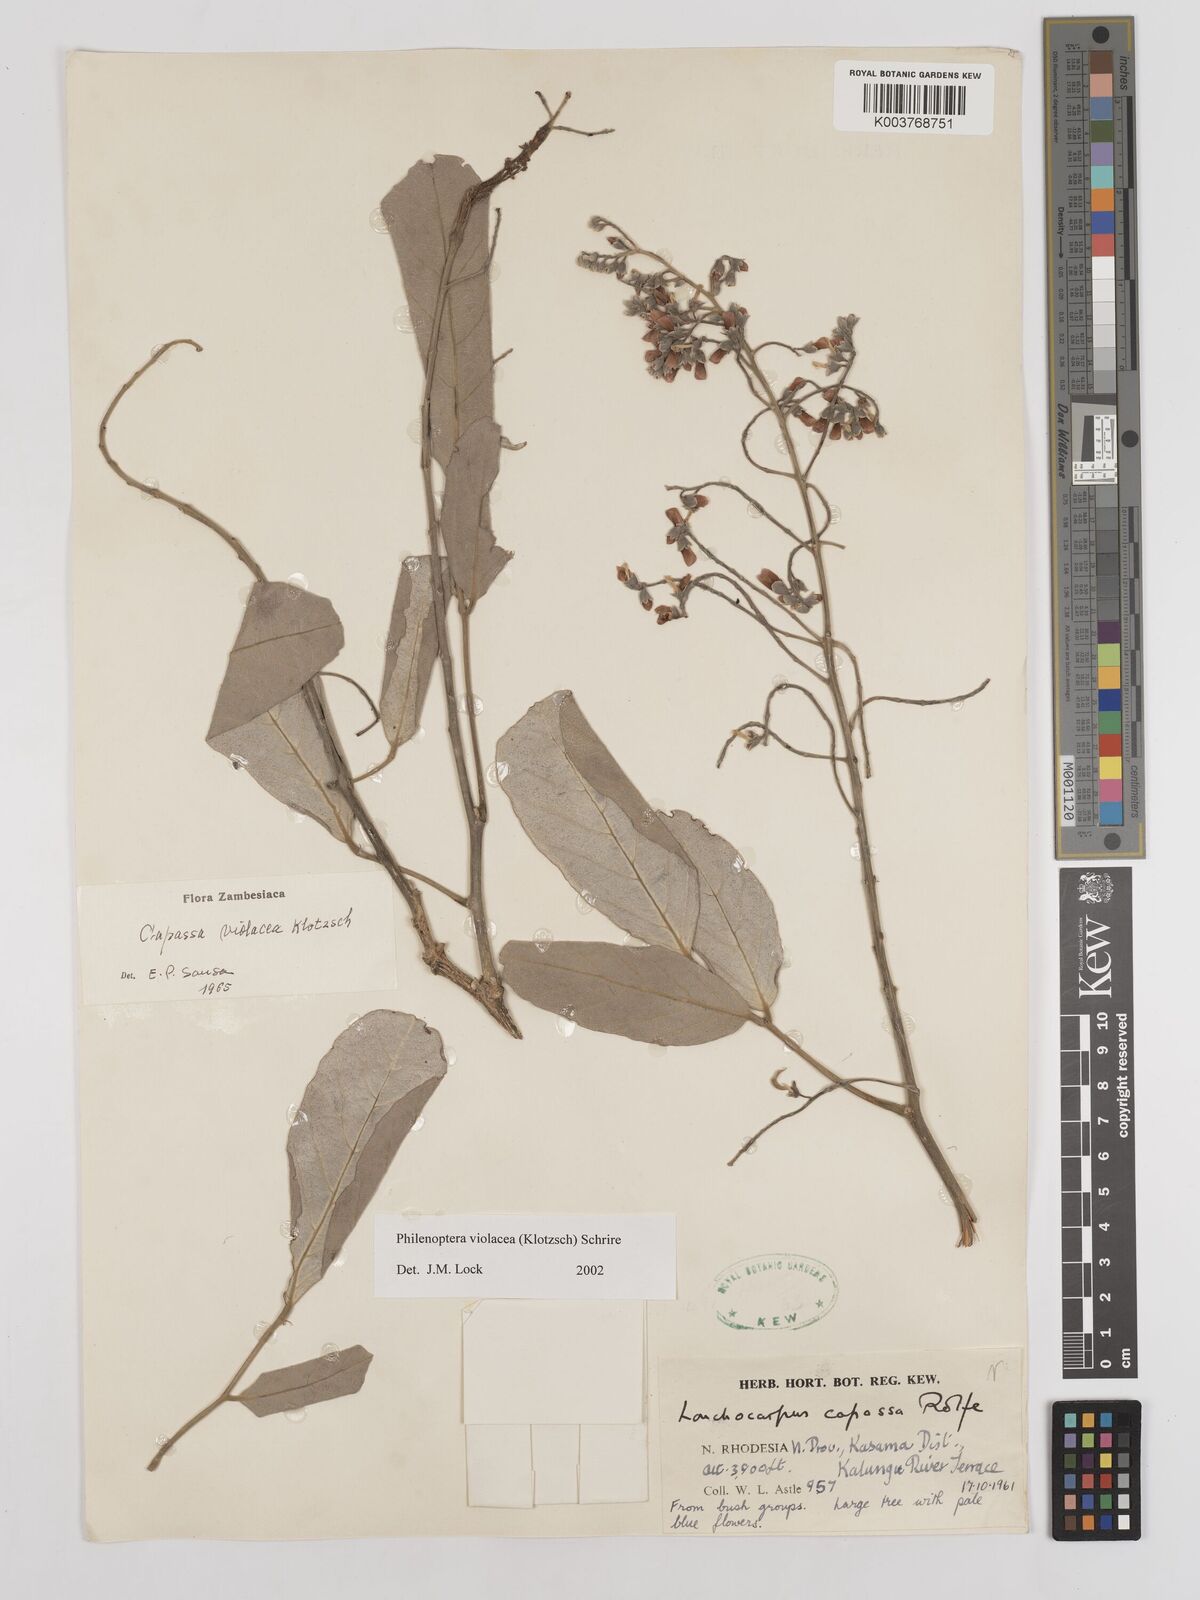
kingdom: Plantae
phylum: Tracheophyta
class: Magnoliopsida
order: Fabales
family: Fabaceae
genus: Philenoptera
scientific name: Philenoptera violacea
